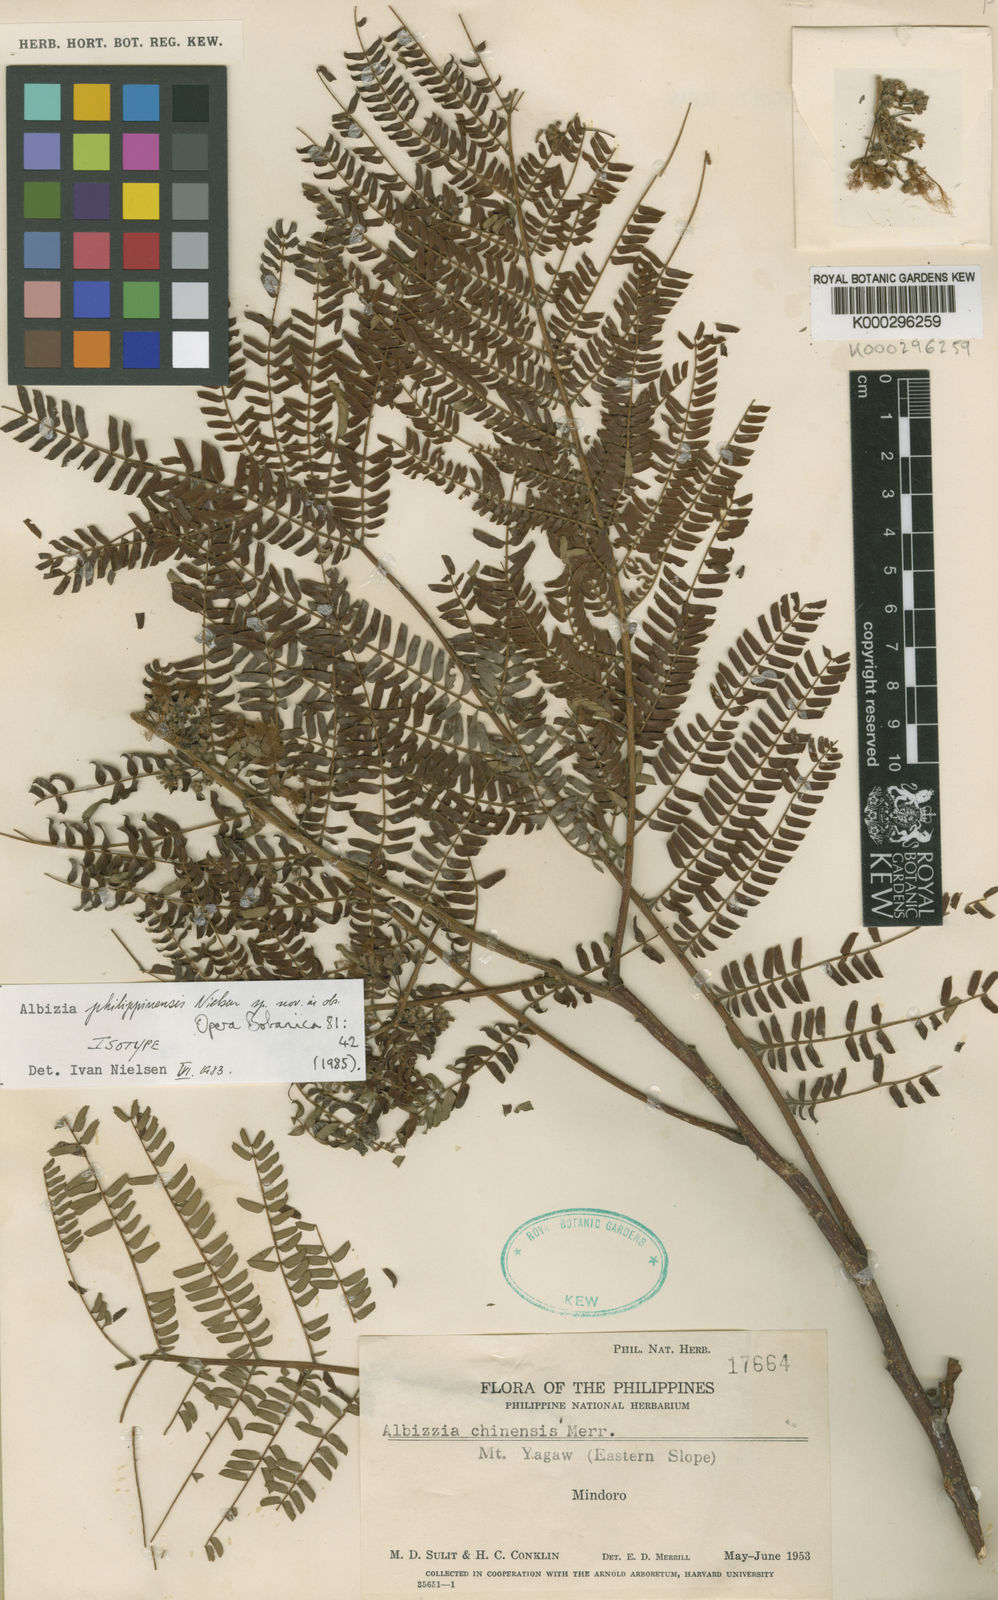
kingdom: Plantae
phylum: Tracheophyta
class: Magnoliopsida
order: Fabales
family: Fabaceae
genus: Albizia
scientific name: Albizia philippinensis
